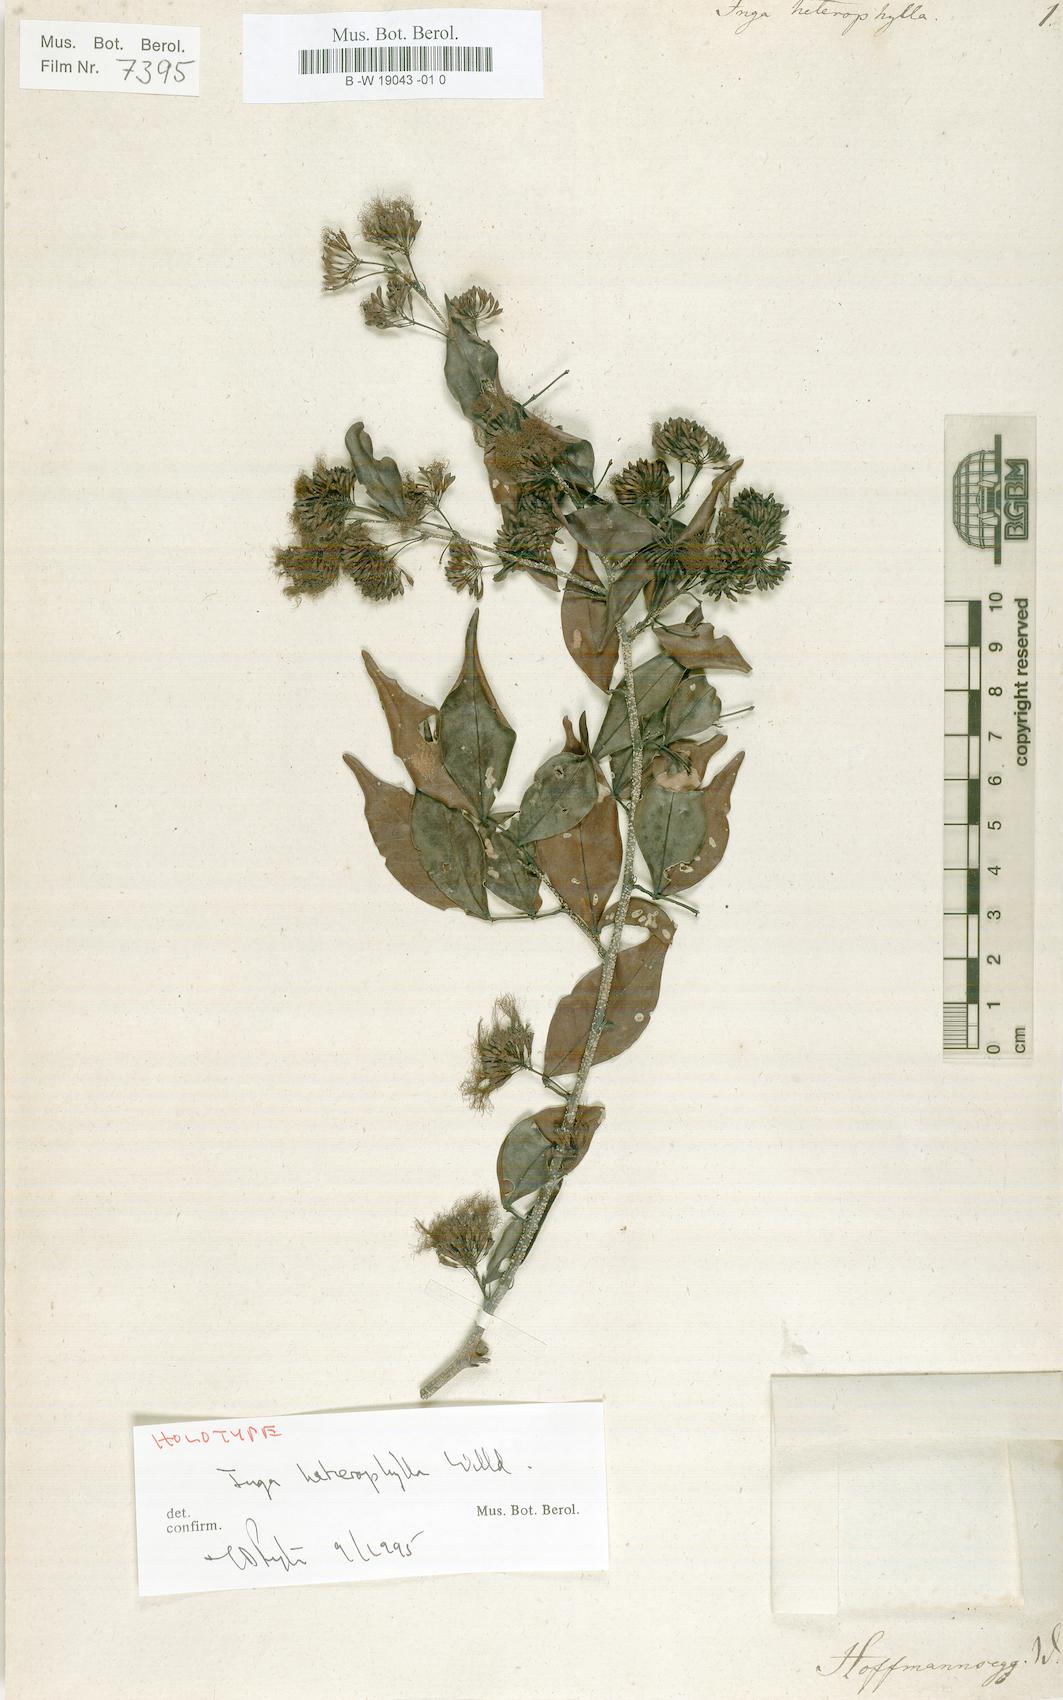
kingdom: Plantae
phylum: Tracheophyta
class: Magnoliopsida
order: Fabales
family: Fabaceae
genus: Inga
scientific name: Inga heterophylla
